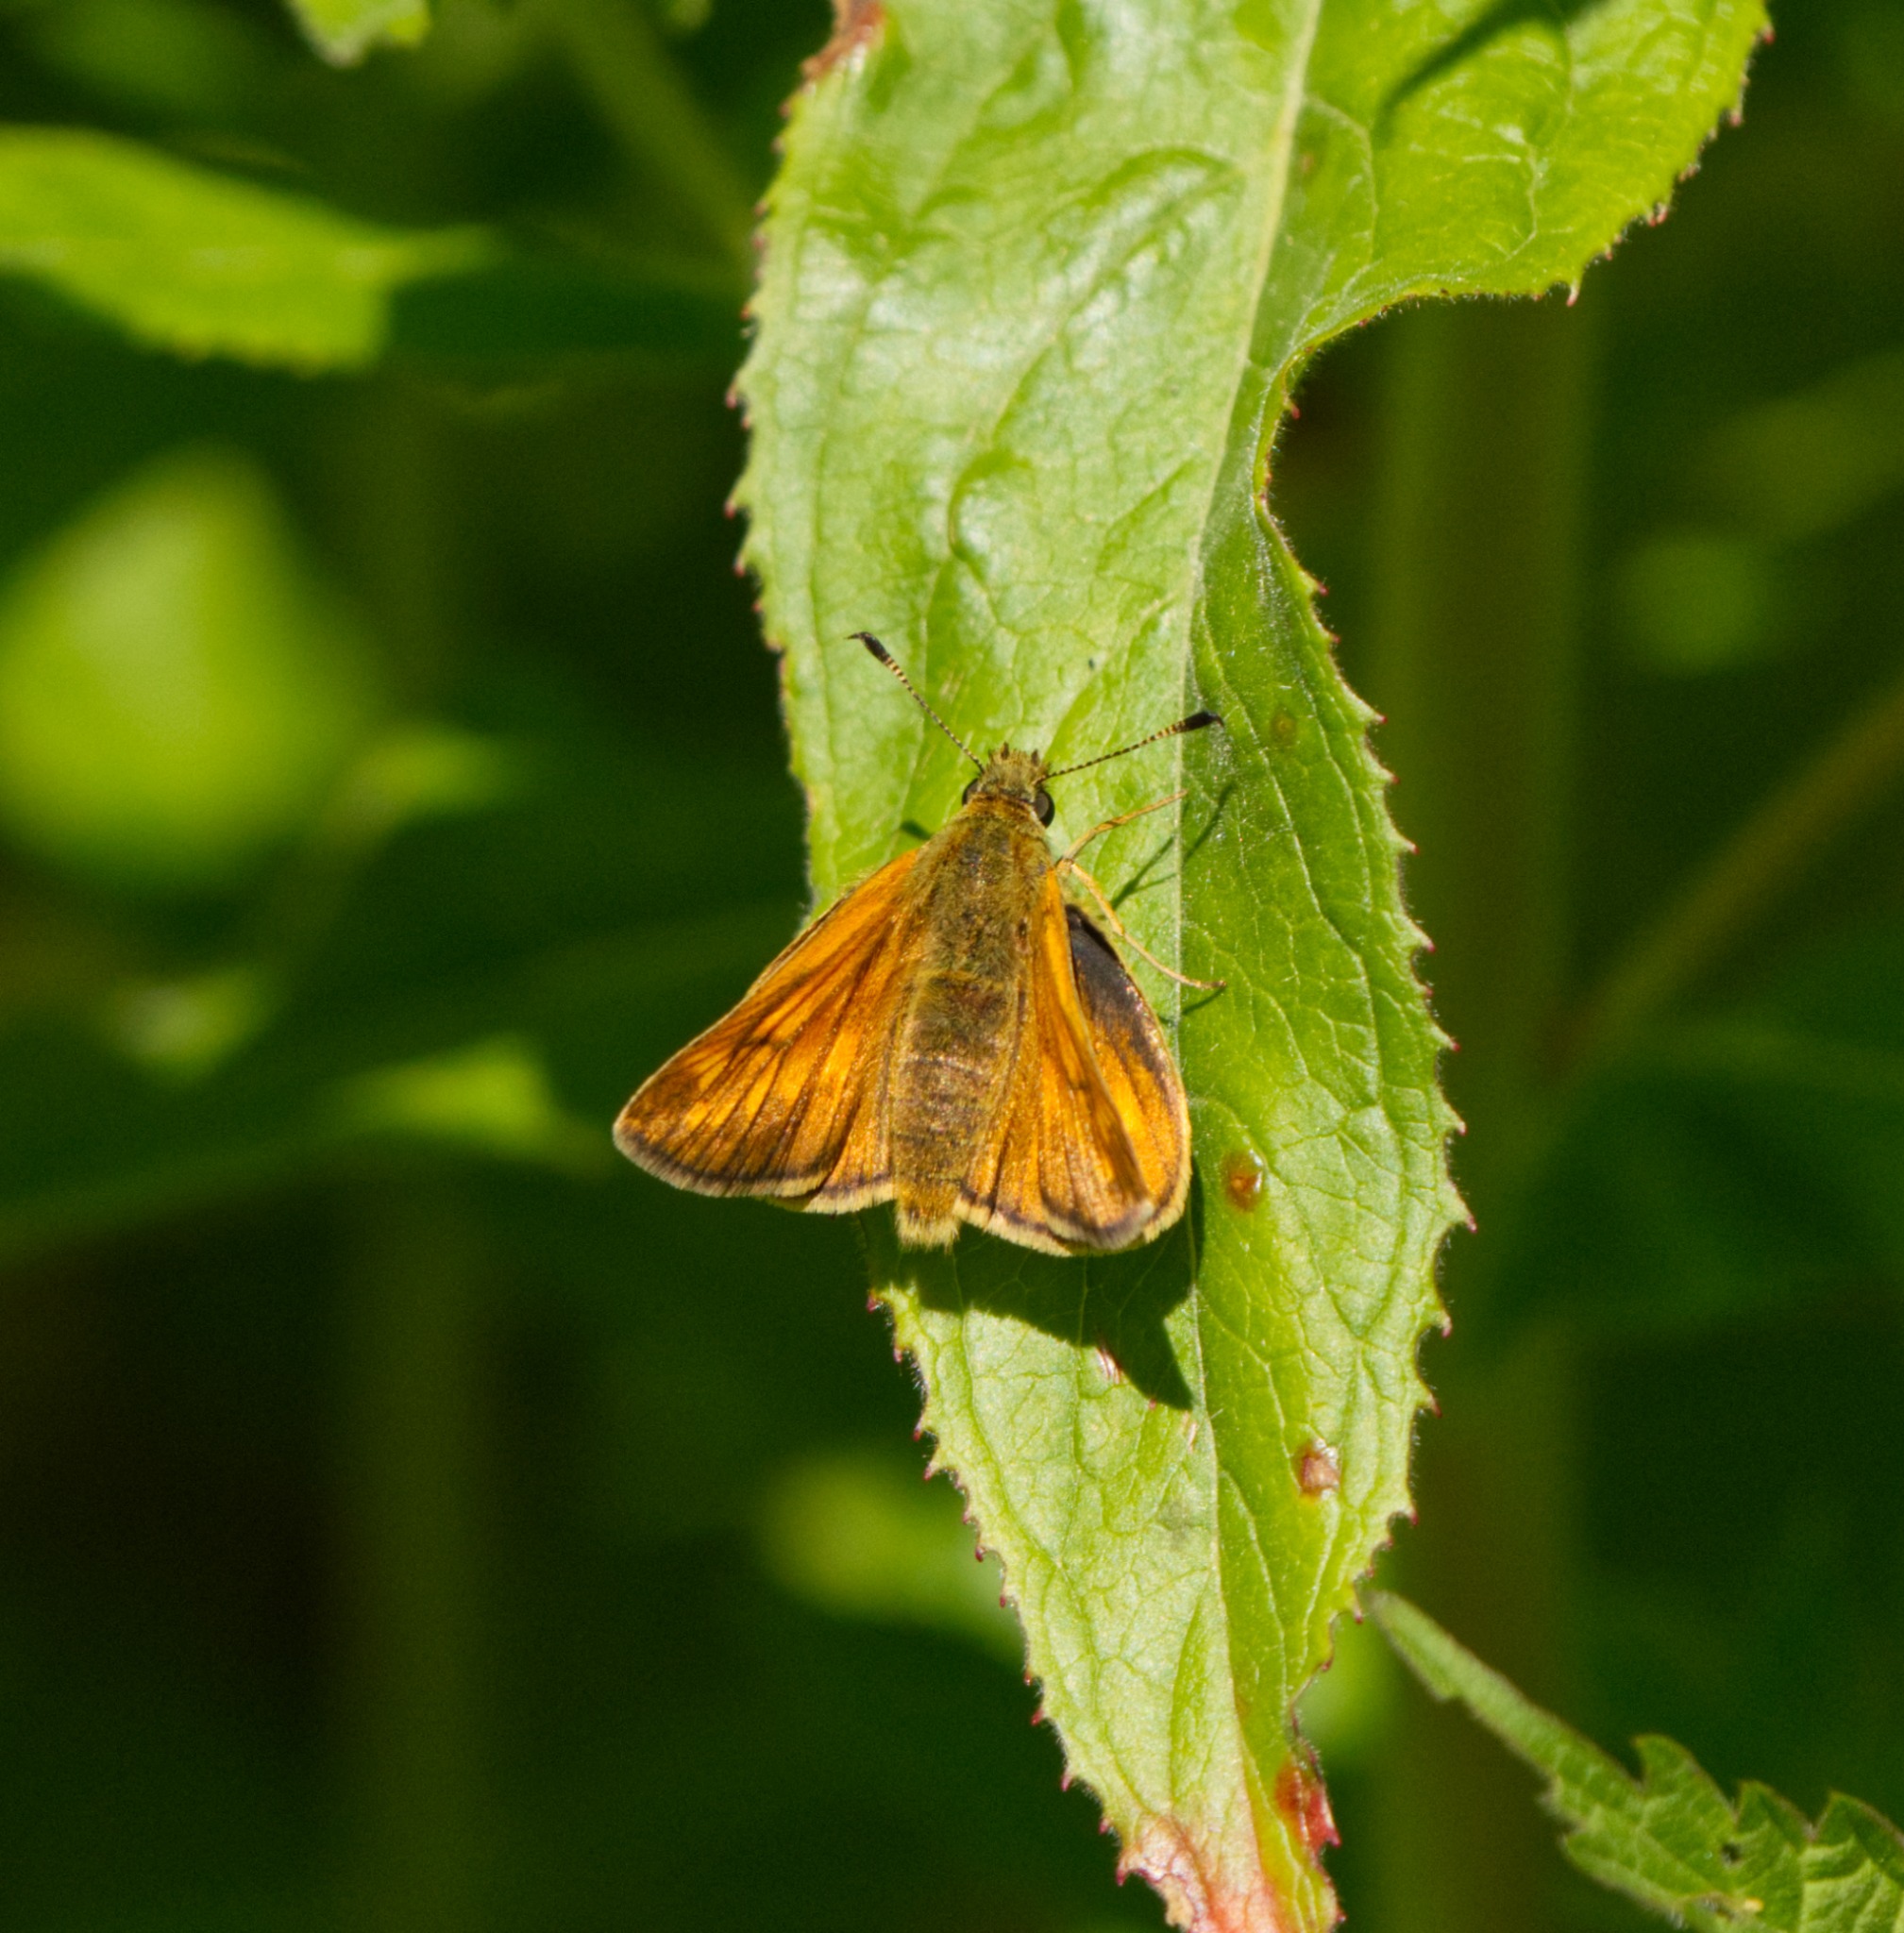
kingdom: Animalia
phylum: Arthropoda
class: Insecta
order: Lepidoptera
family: Hesperiidae
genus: Ochlodes
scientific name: Ochlodes venata
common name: Stor bredpande
